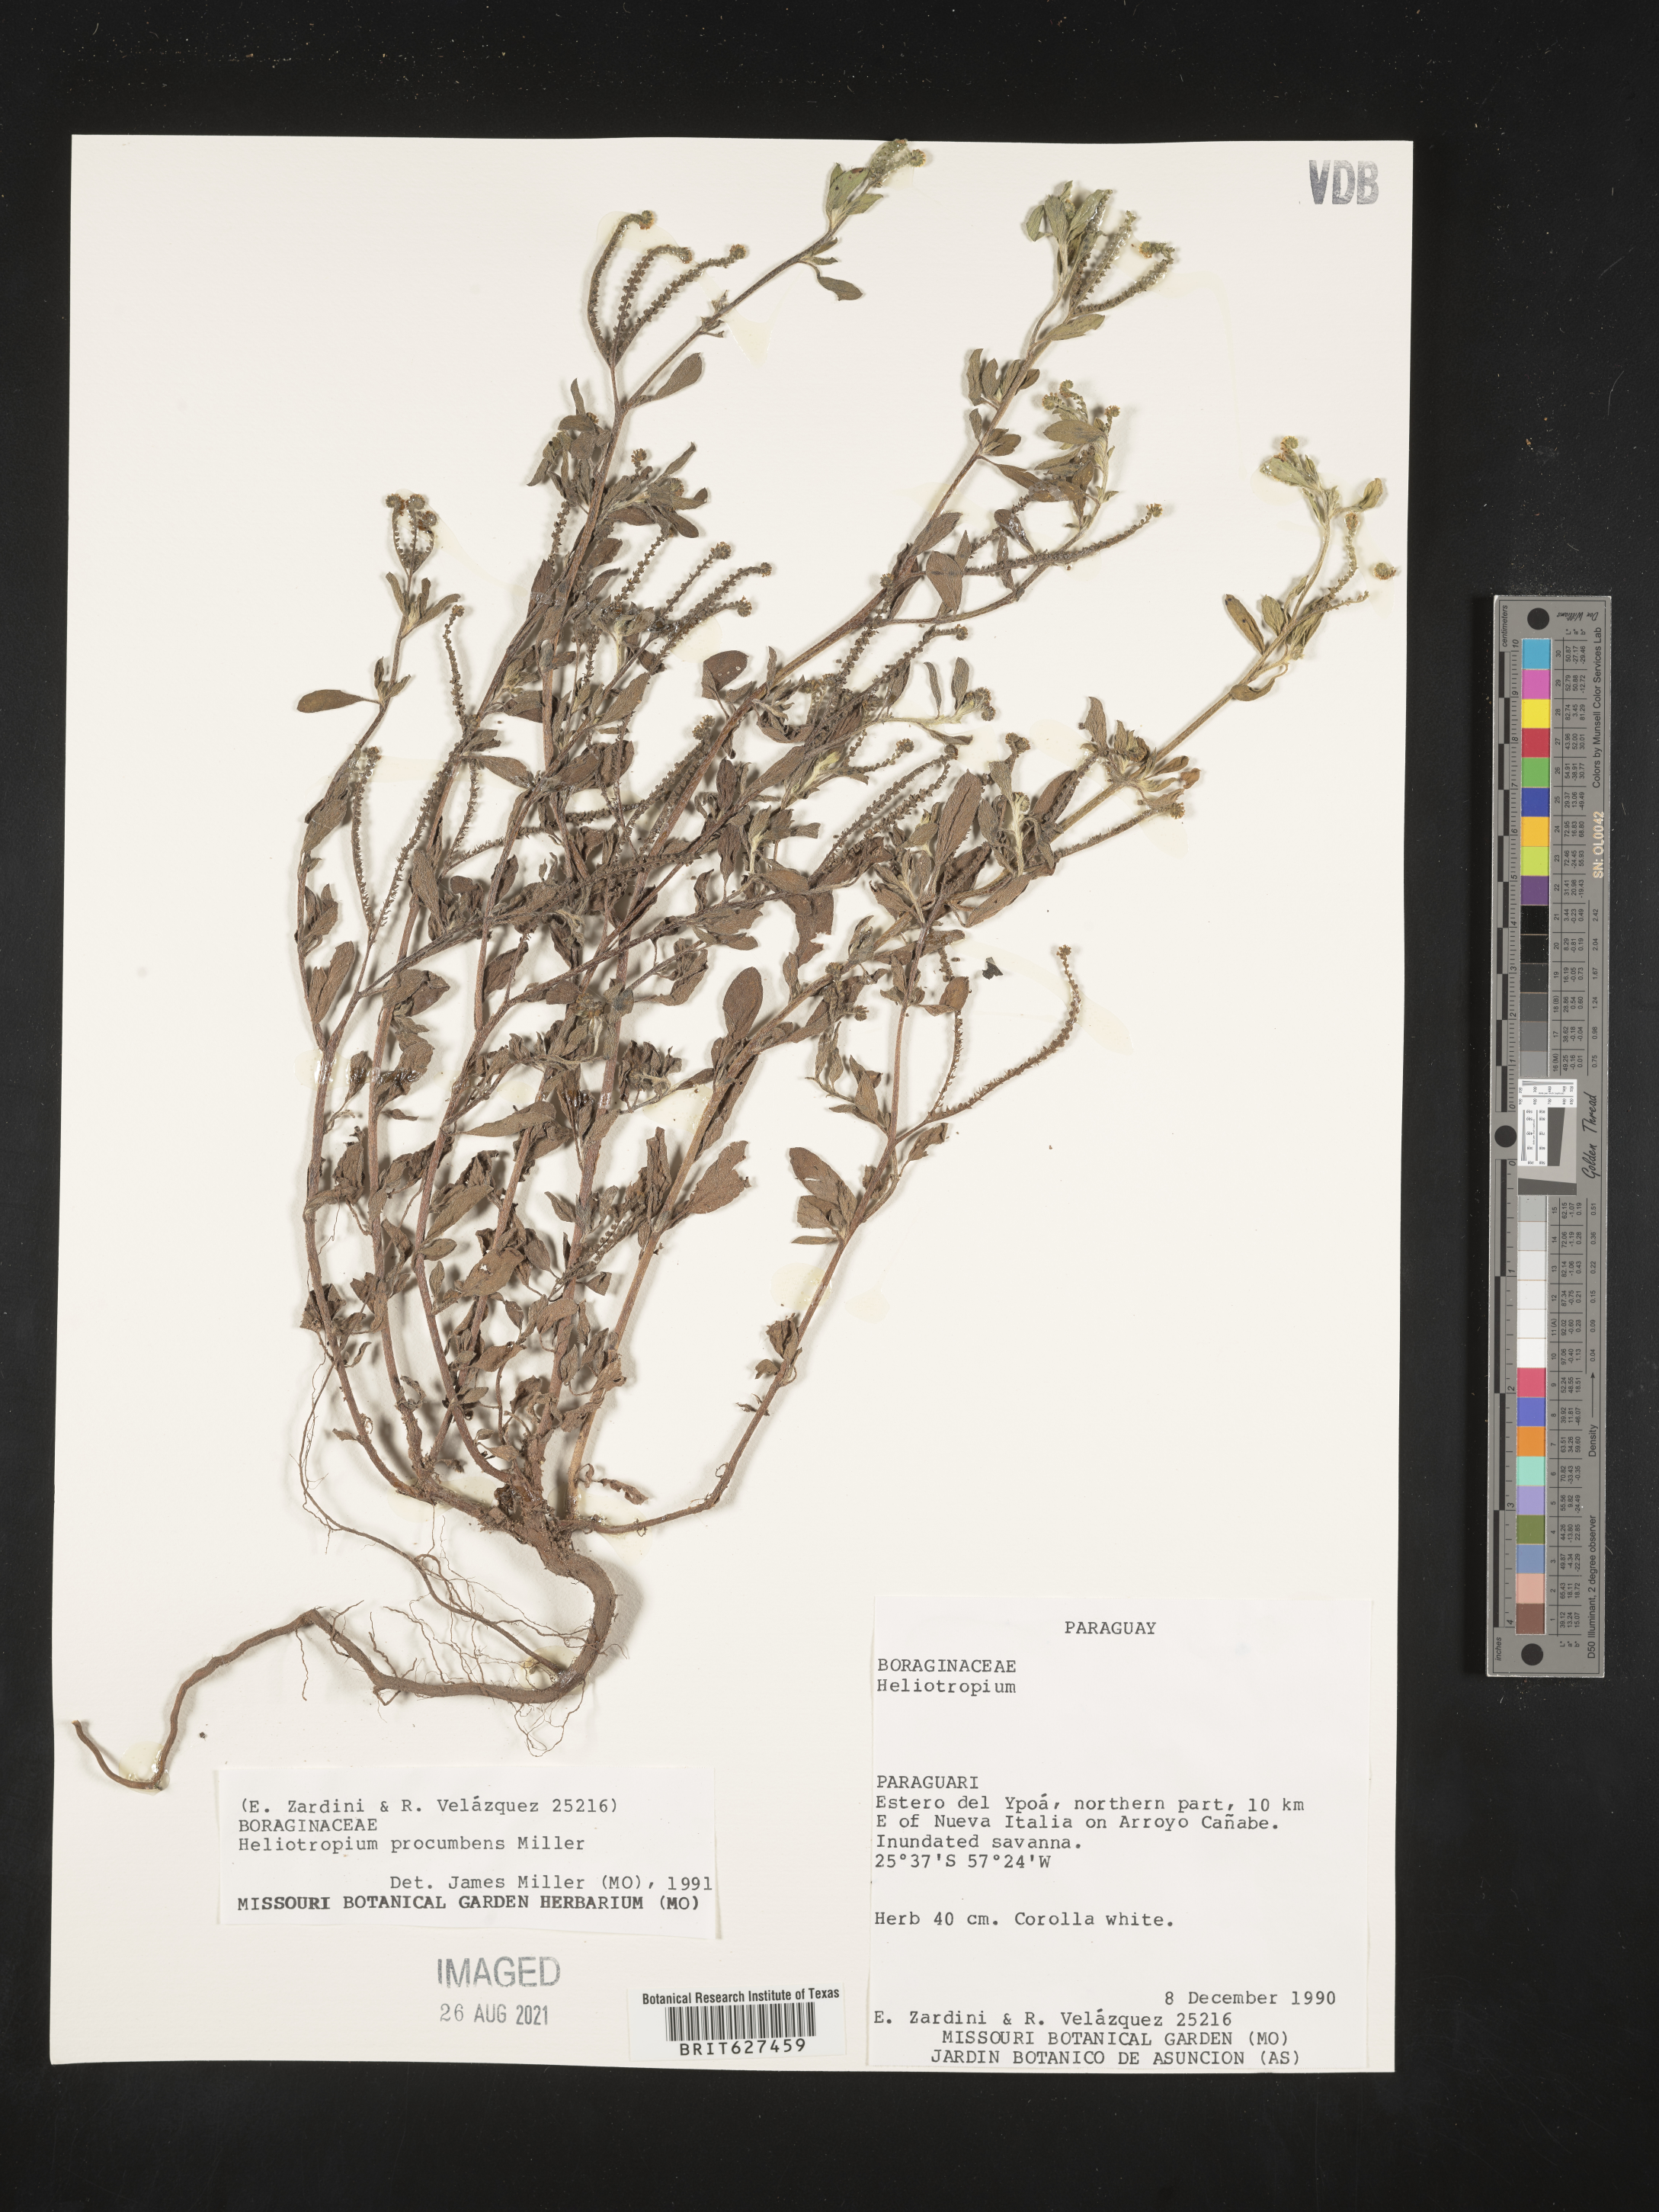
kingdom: Plantae
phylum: Tracheophyta
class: Magnoliopsida
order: Boraginales
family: Heliotropiaceae
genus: Euploca
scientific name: Euploca procumbens
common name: Fourspike heliotrope
